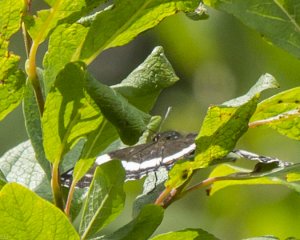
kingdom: Animalia
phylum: Arthropoda
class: Insecta
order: Lepidoptera
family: Nymphalidae
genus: Limenitis
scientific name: Limenitis arthemis
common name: Red-spotted Admiral
